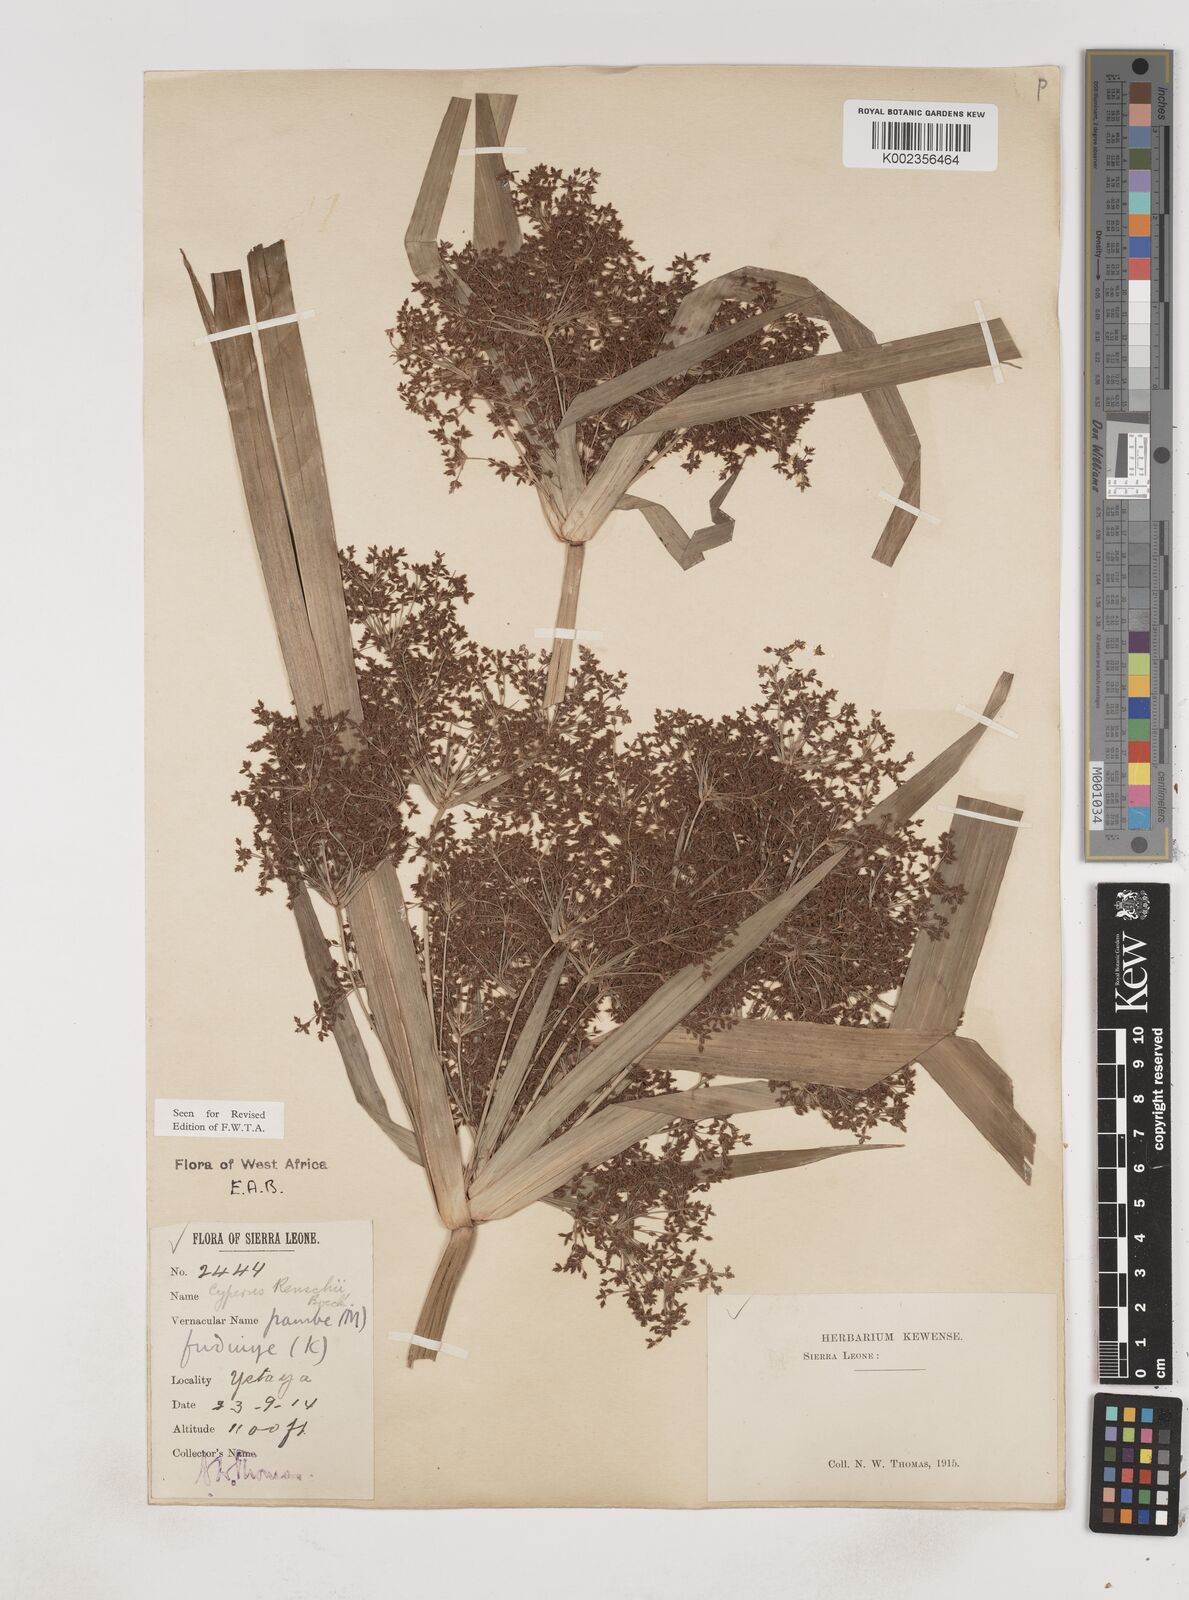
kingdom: Plantae
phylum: Tracheophyta
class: Liliopsida
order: Poales
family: Cyperaceae
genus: Cyperus
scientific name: Cyperus renschii
